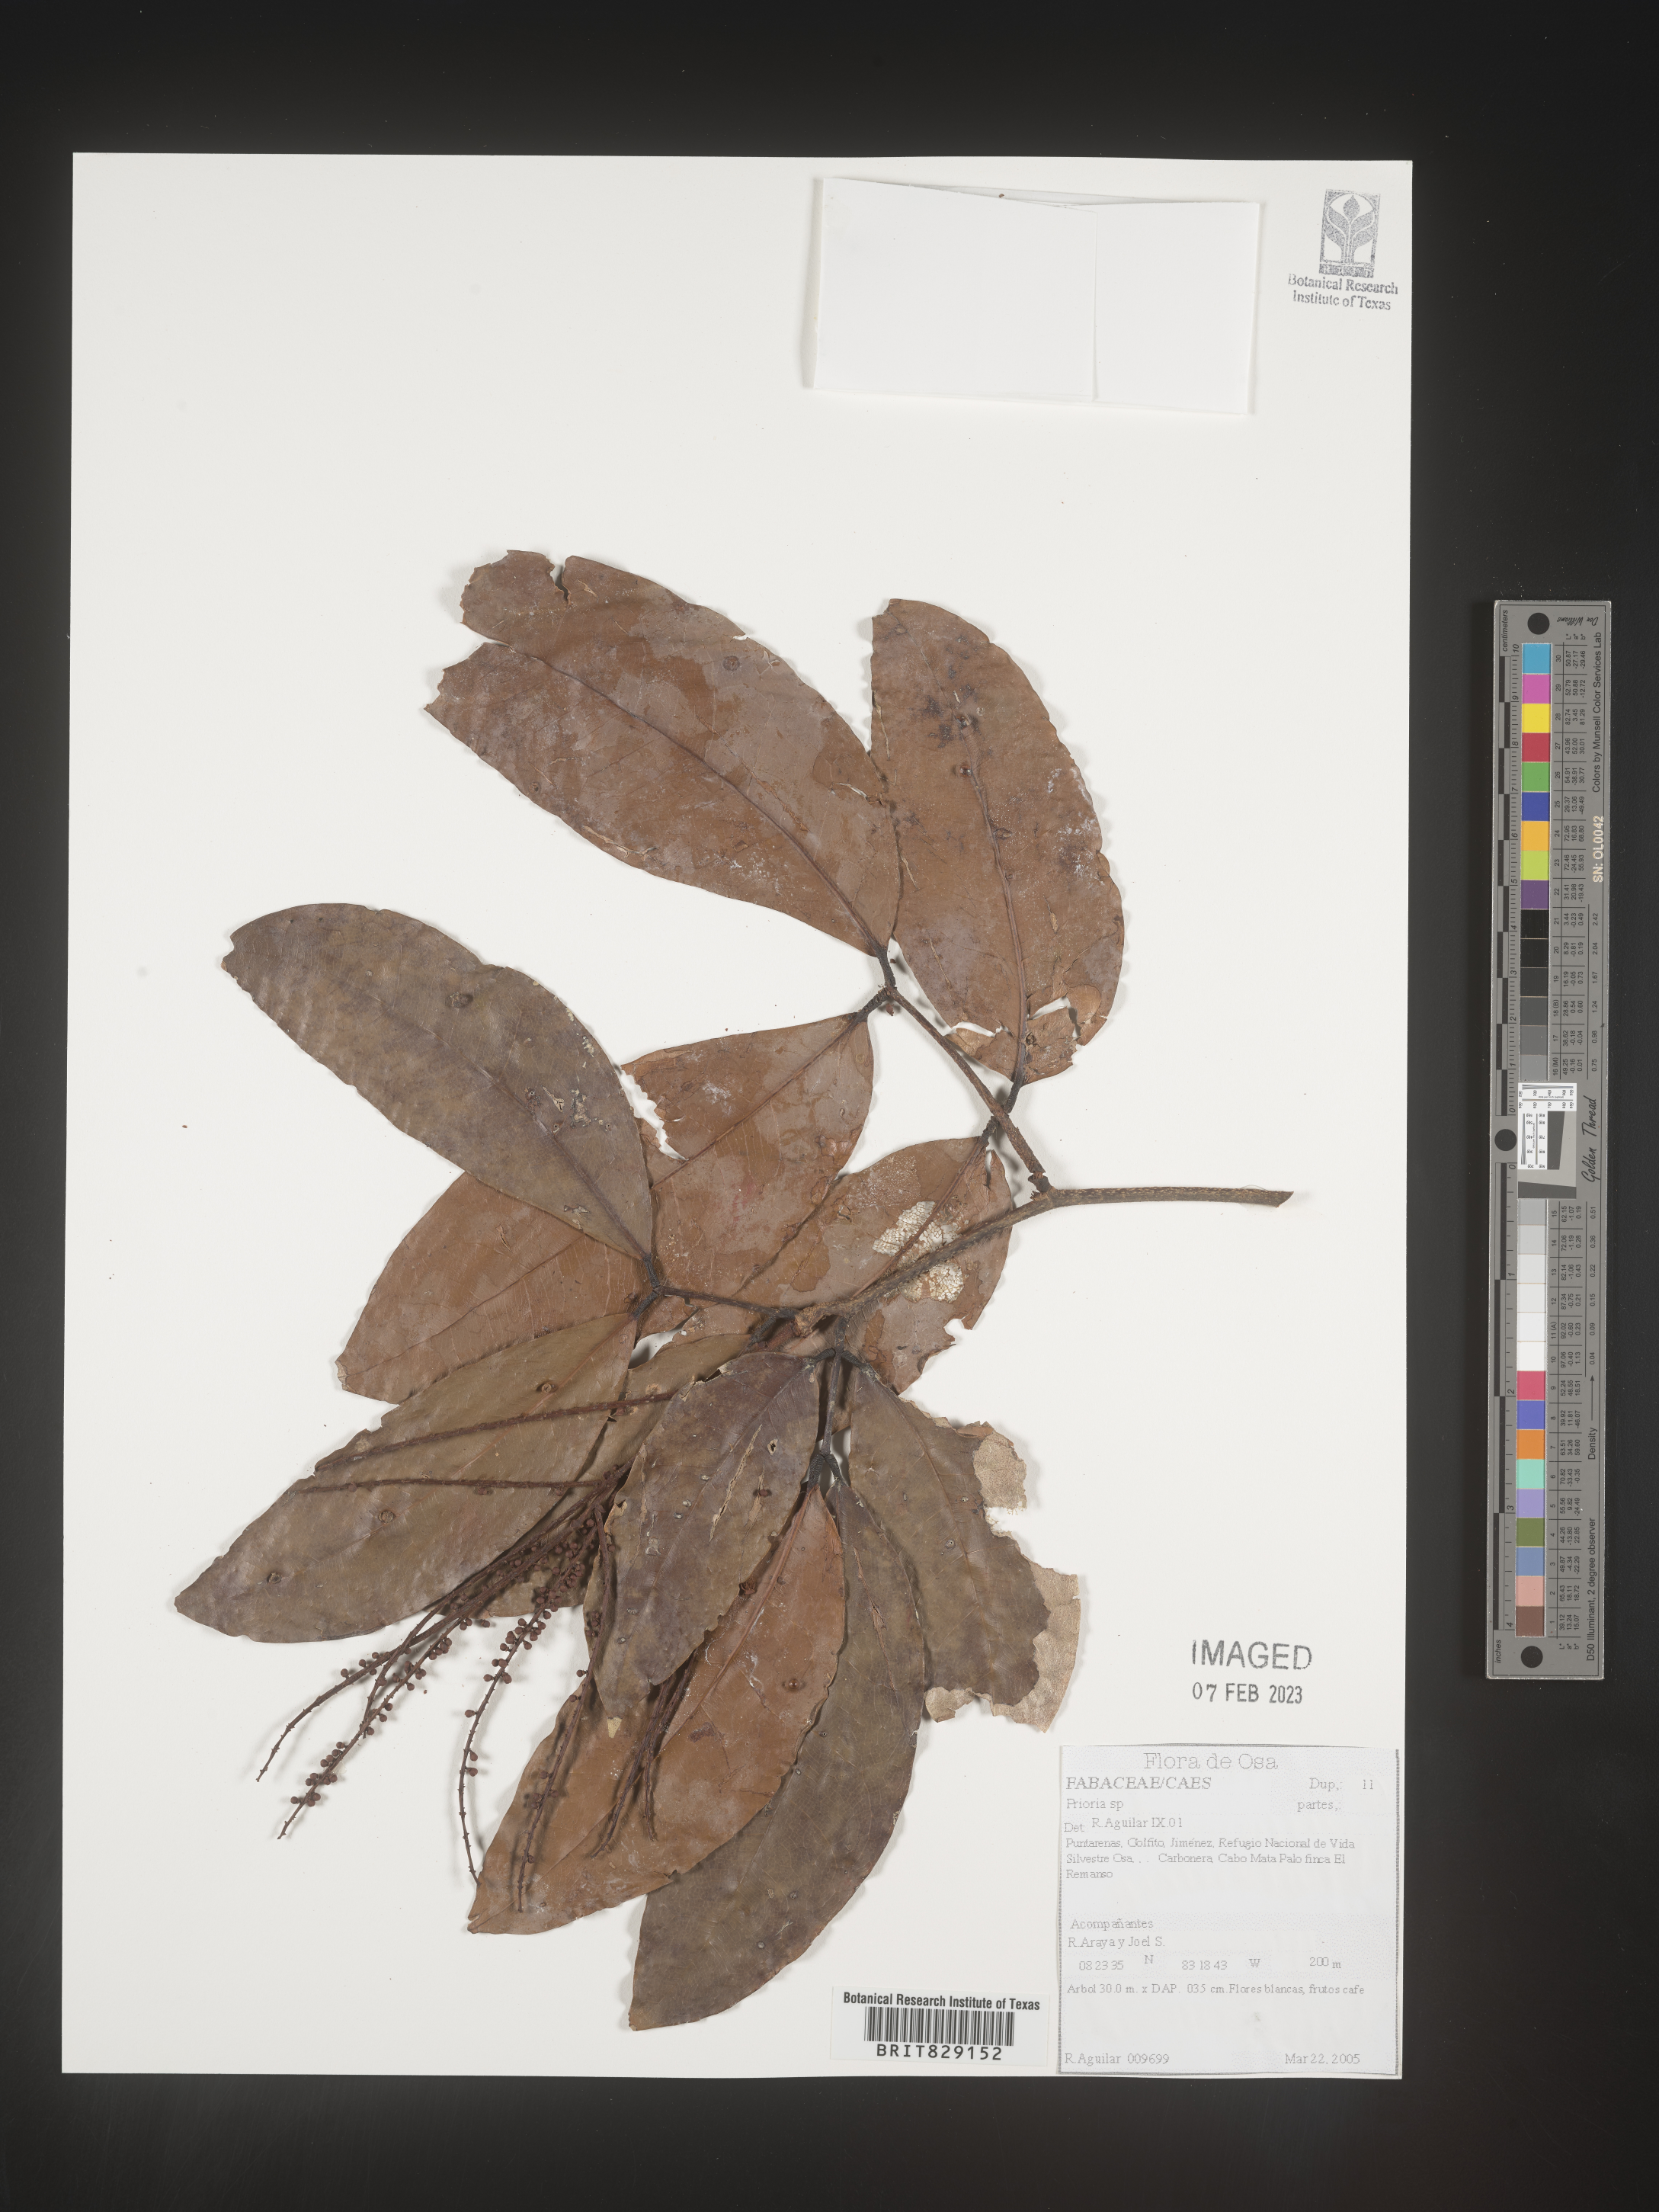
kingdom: Plantae
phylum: Tracheophyta
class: Magnoliopsida
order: Fabales
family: Fabaceae
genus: Prioria
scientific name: Prioria
